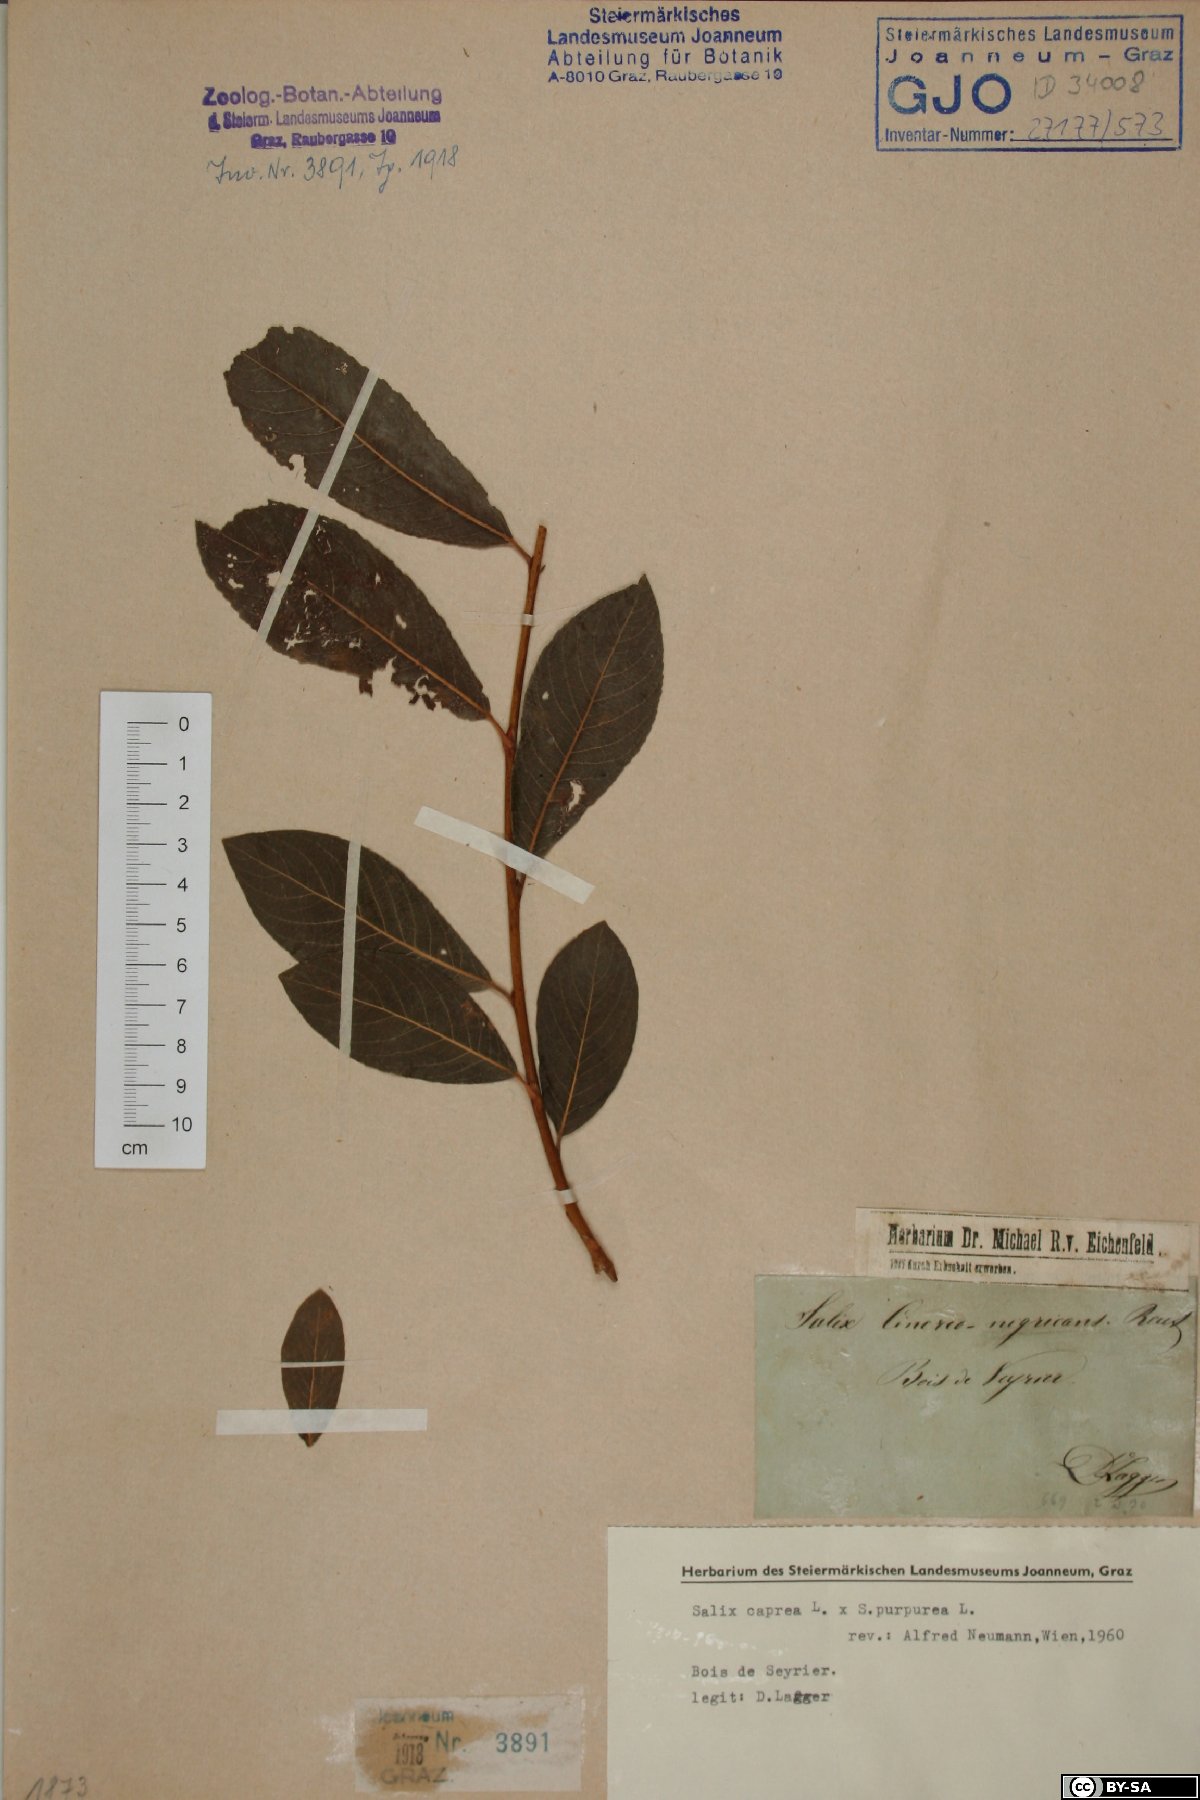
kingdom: Plantae
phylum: Tracheophyta
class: Magnoliopsida
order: Malpighiales
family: Salicaceae
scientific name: Salicaceae
